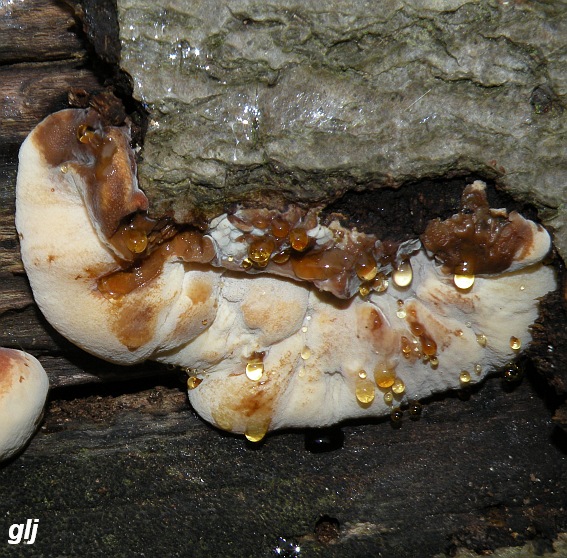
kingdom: Fungi
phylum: Basidiomycota
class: Agaricomycetes
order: Polyporales
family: Ischnodermataceae
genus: Ischnoderma
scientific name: Ischnoderma resinosum
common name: løv-tjæreporesvamp
